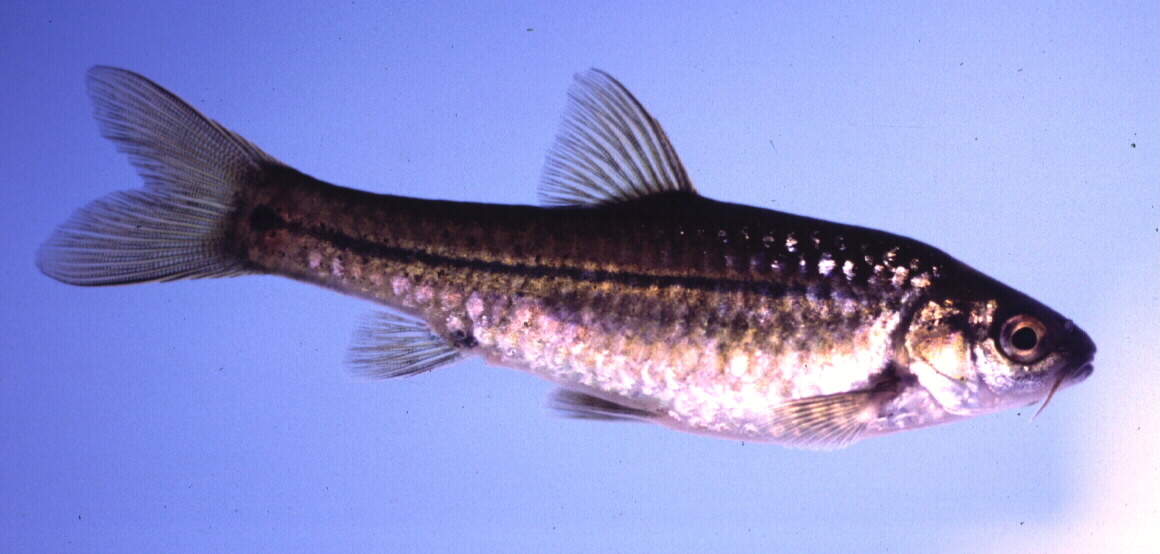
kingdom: Animalia
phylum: Chordata
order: Cypriniformes
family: Cyprinidae
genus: Enteromius
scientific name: Enteromius viviparus
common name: Bowstripe barb
